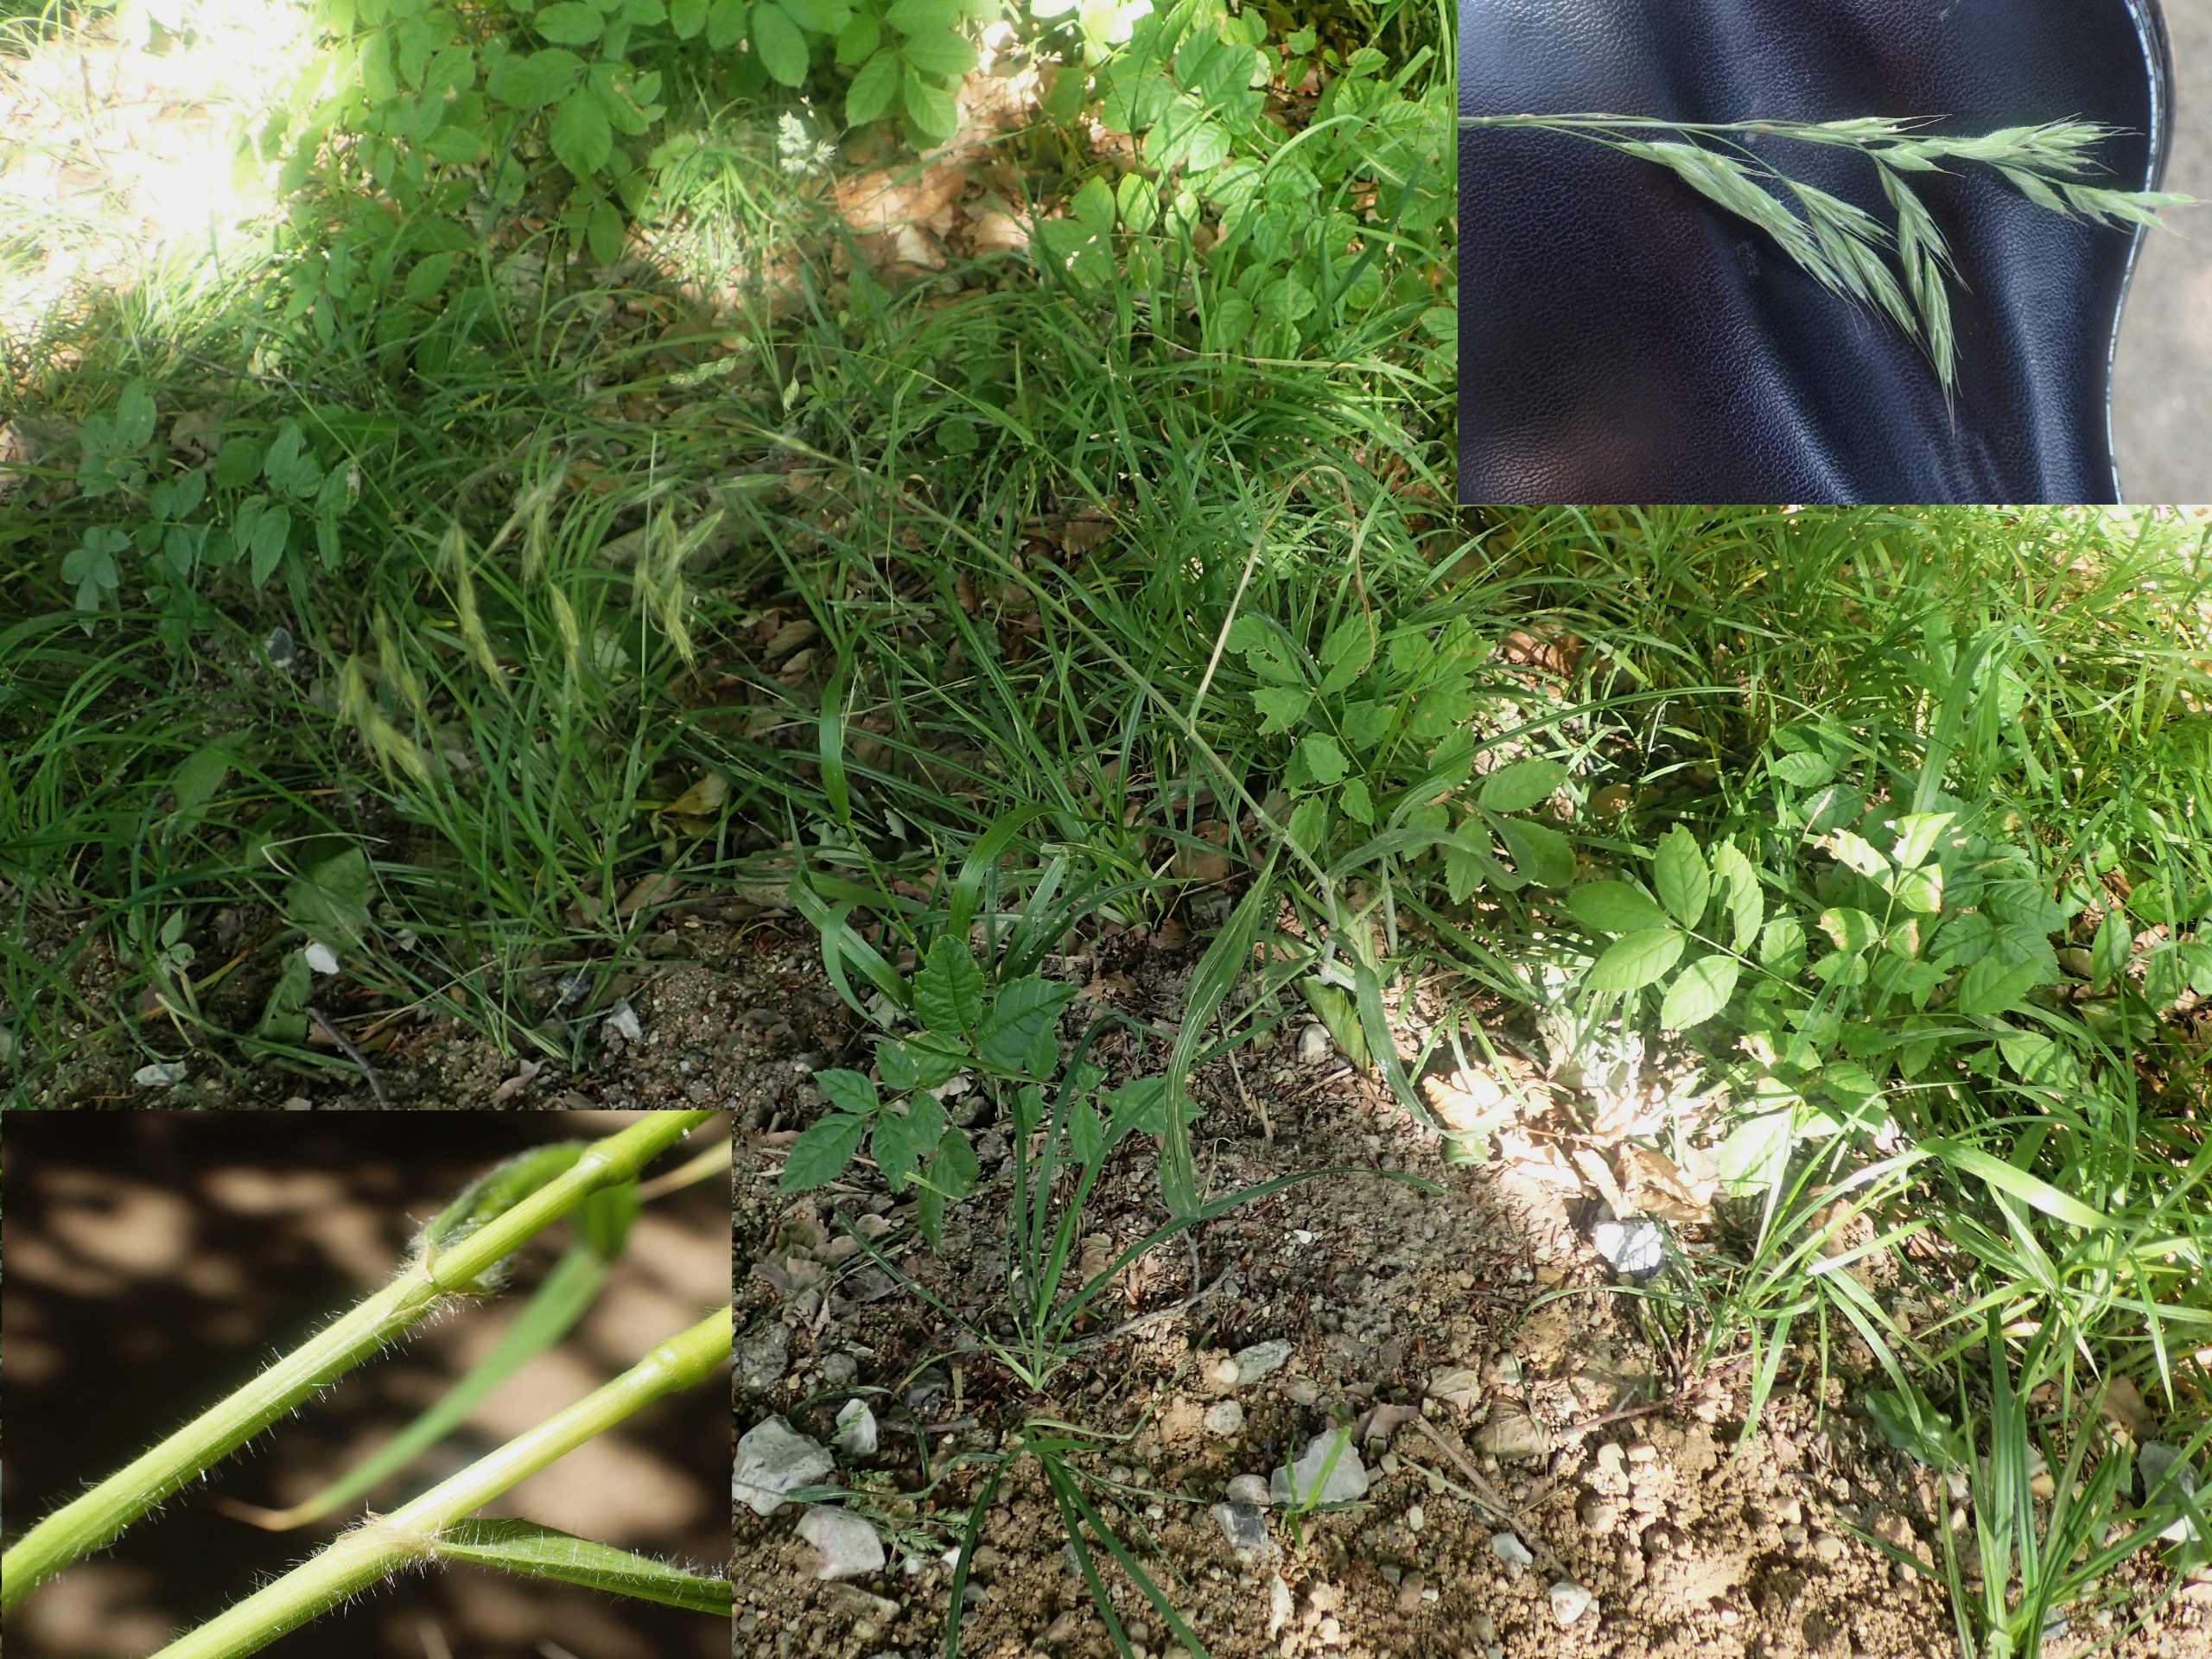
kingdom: Plantae
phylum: Tracheophyta
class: Liliopsida
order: Poales
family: Poaceae
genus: Bromus
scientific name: Bromus benekenii
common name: Tidlig skov-hejre
